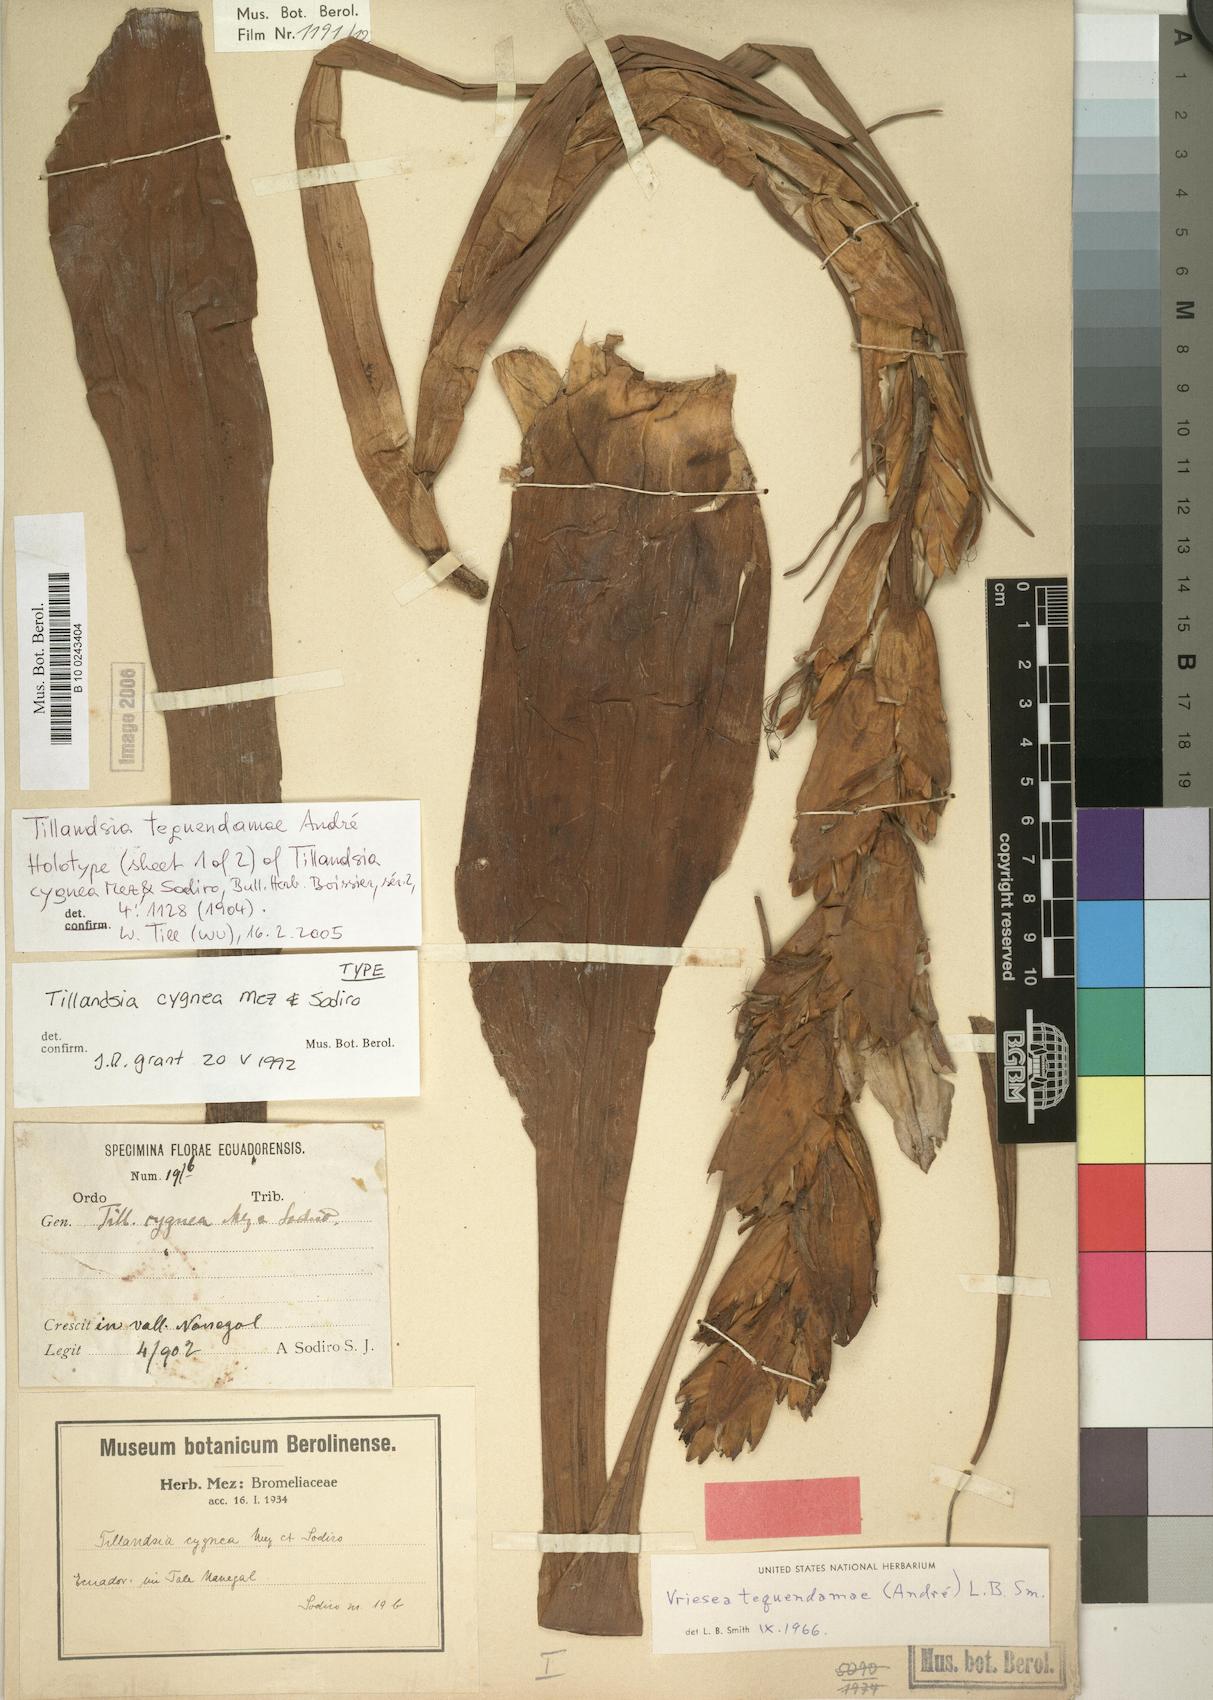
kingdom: Plantae
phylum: Tracheophyta
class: Liliopsida
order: Poales
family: Bromeliaceae
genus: Vriesea
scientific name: Vriesea tequendamae
